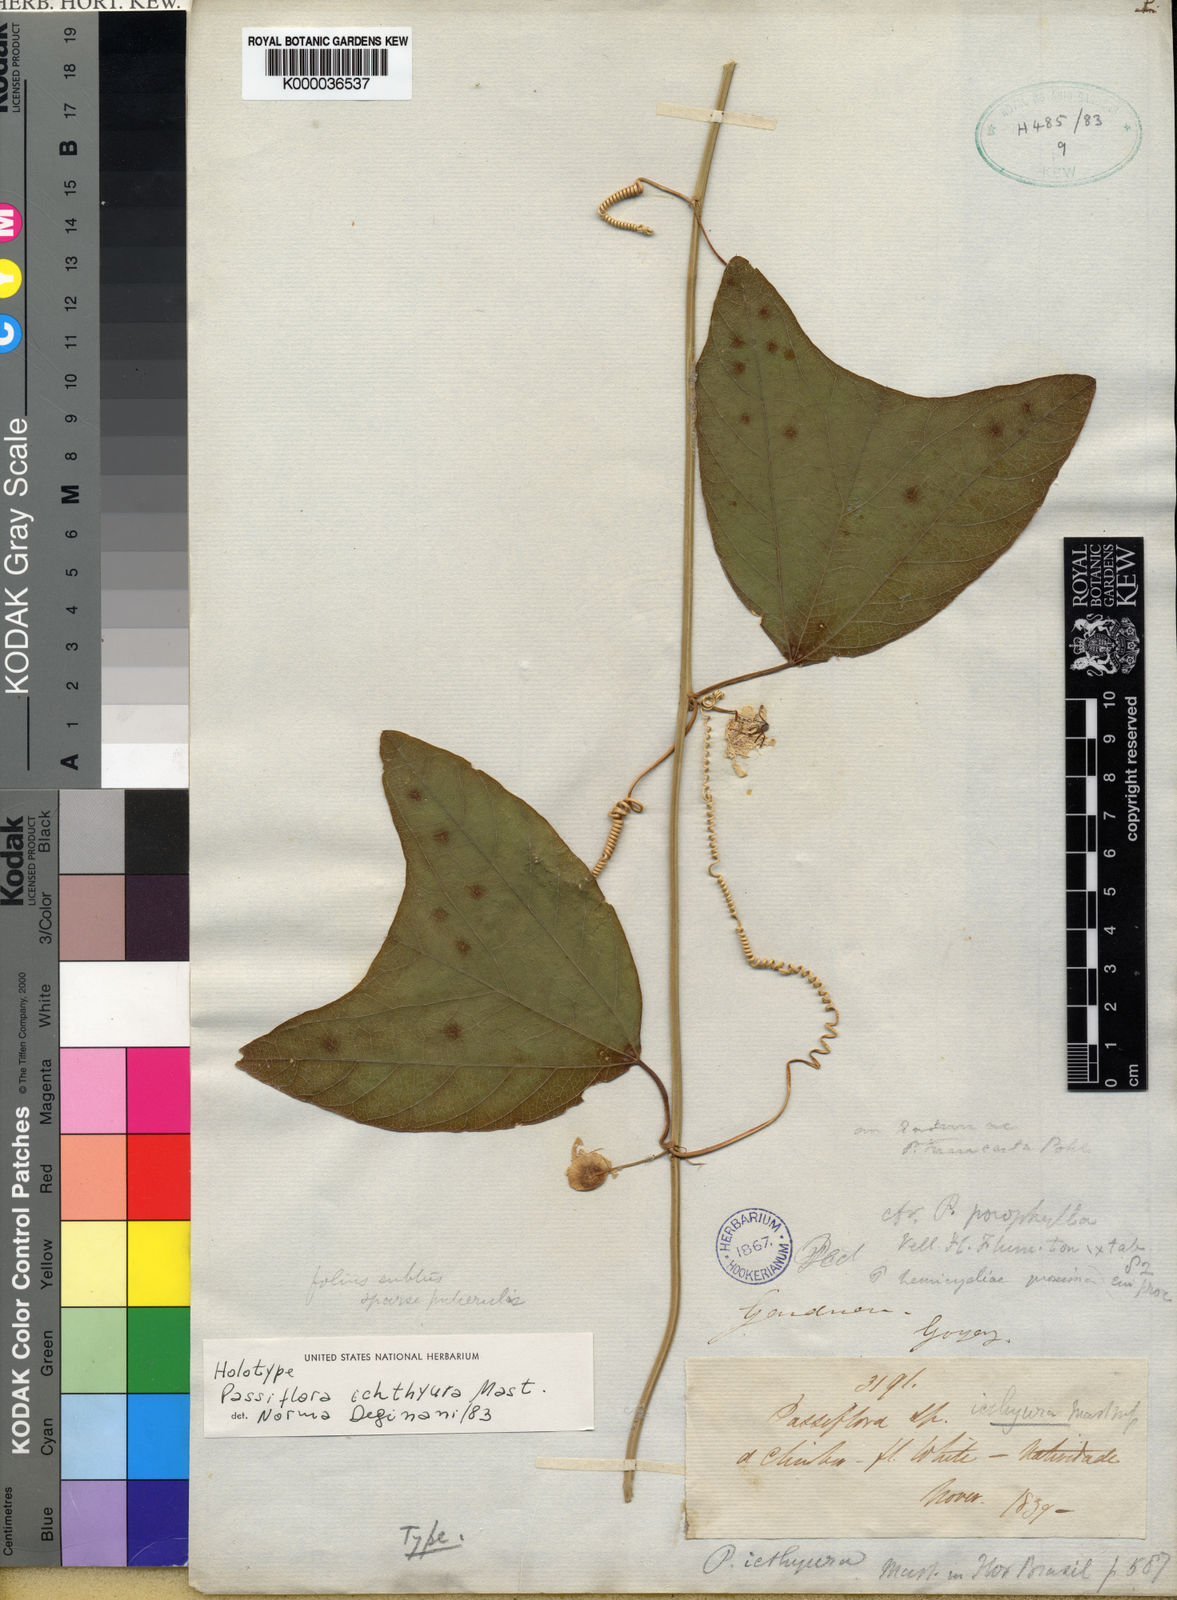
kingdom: Plantae
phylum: Tracheophyta
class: Magnoliopsida
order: Malpighiales
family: Passifloraceae
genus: Passiflora
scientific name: Passiflora pohlii
